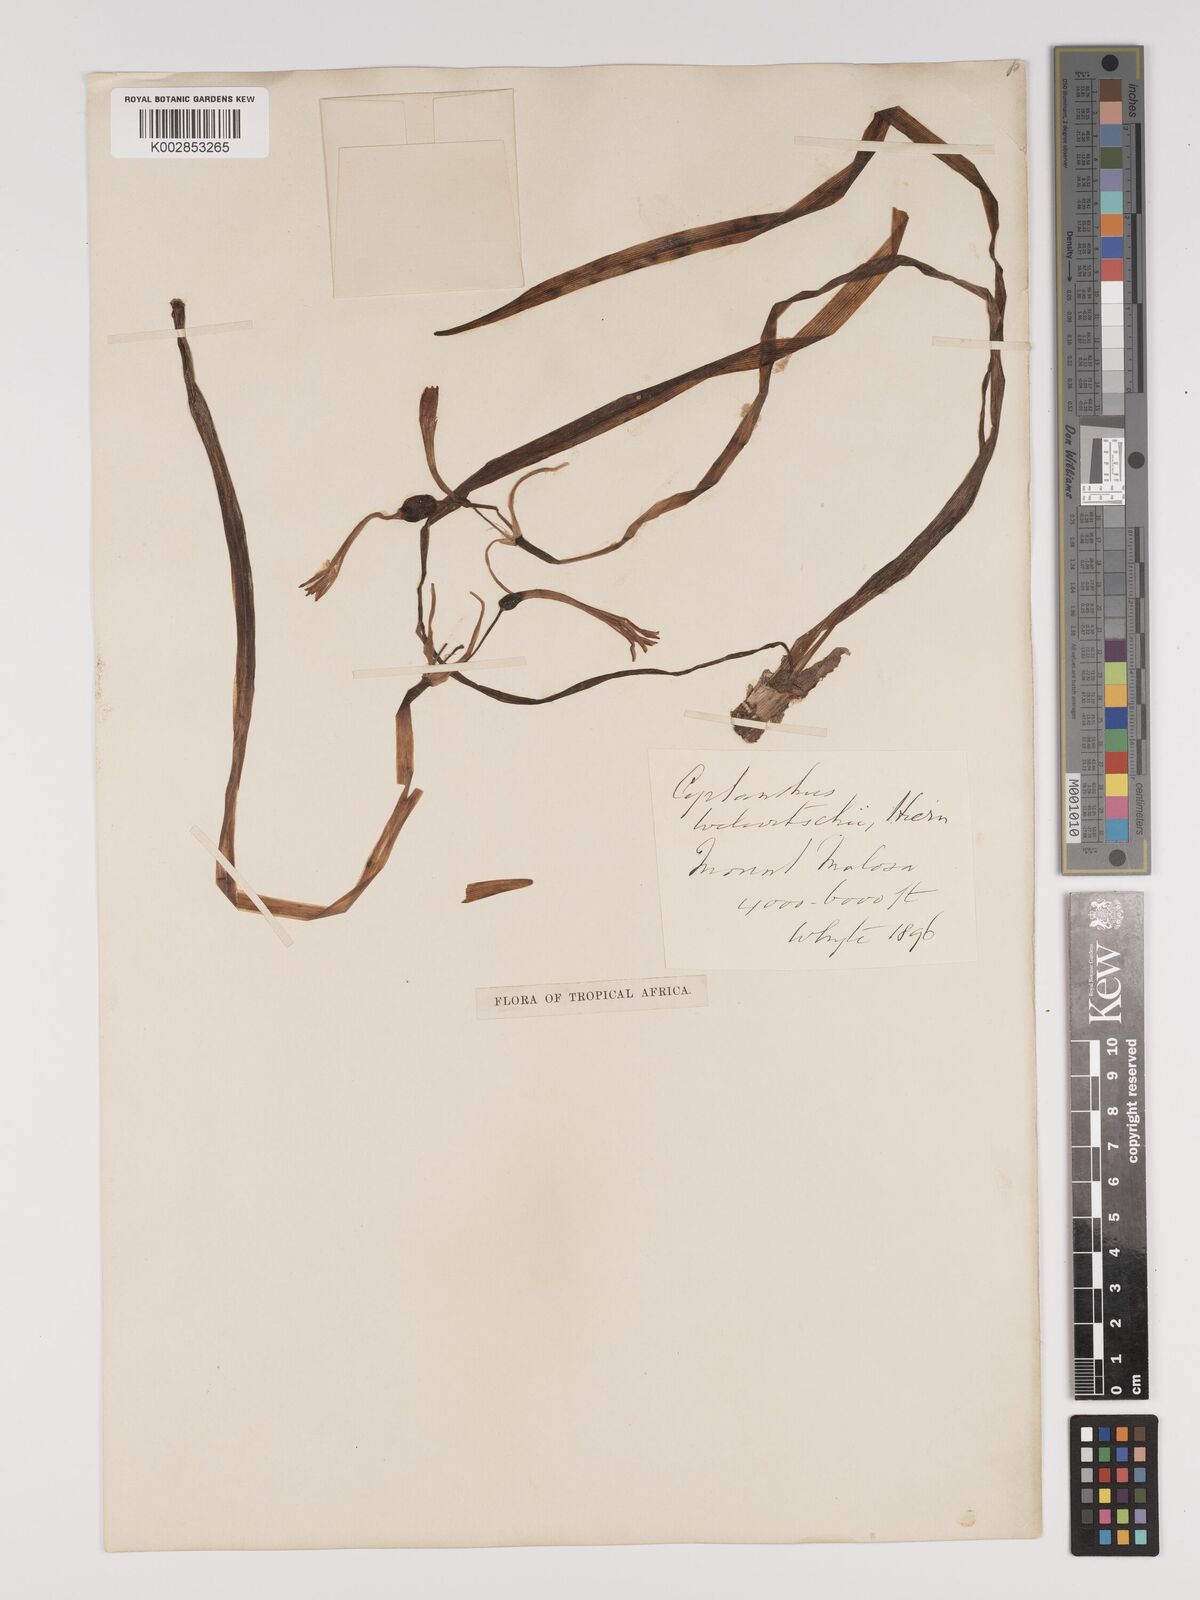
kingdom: Plantae
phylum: Tracheophyta
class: Liliopsida
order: Asparagales
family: Amaryllidaceae
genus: Cyrtanthus
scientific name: Cyrtanthus welwitschii
